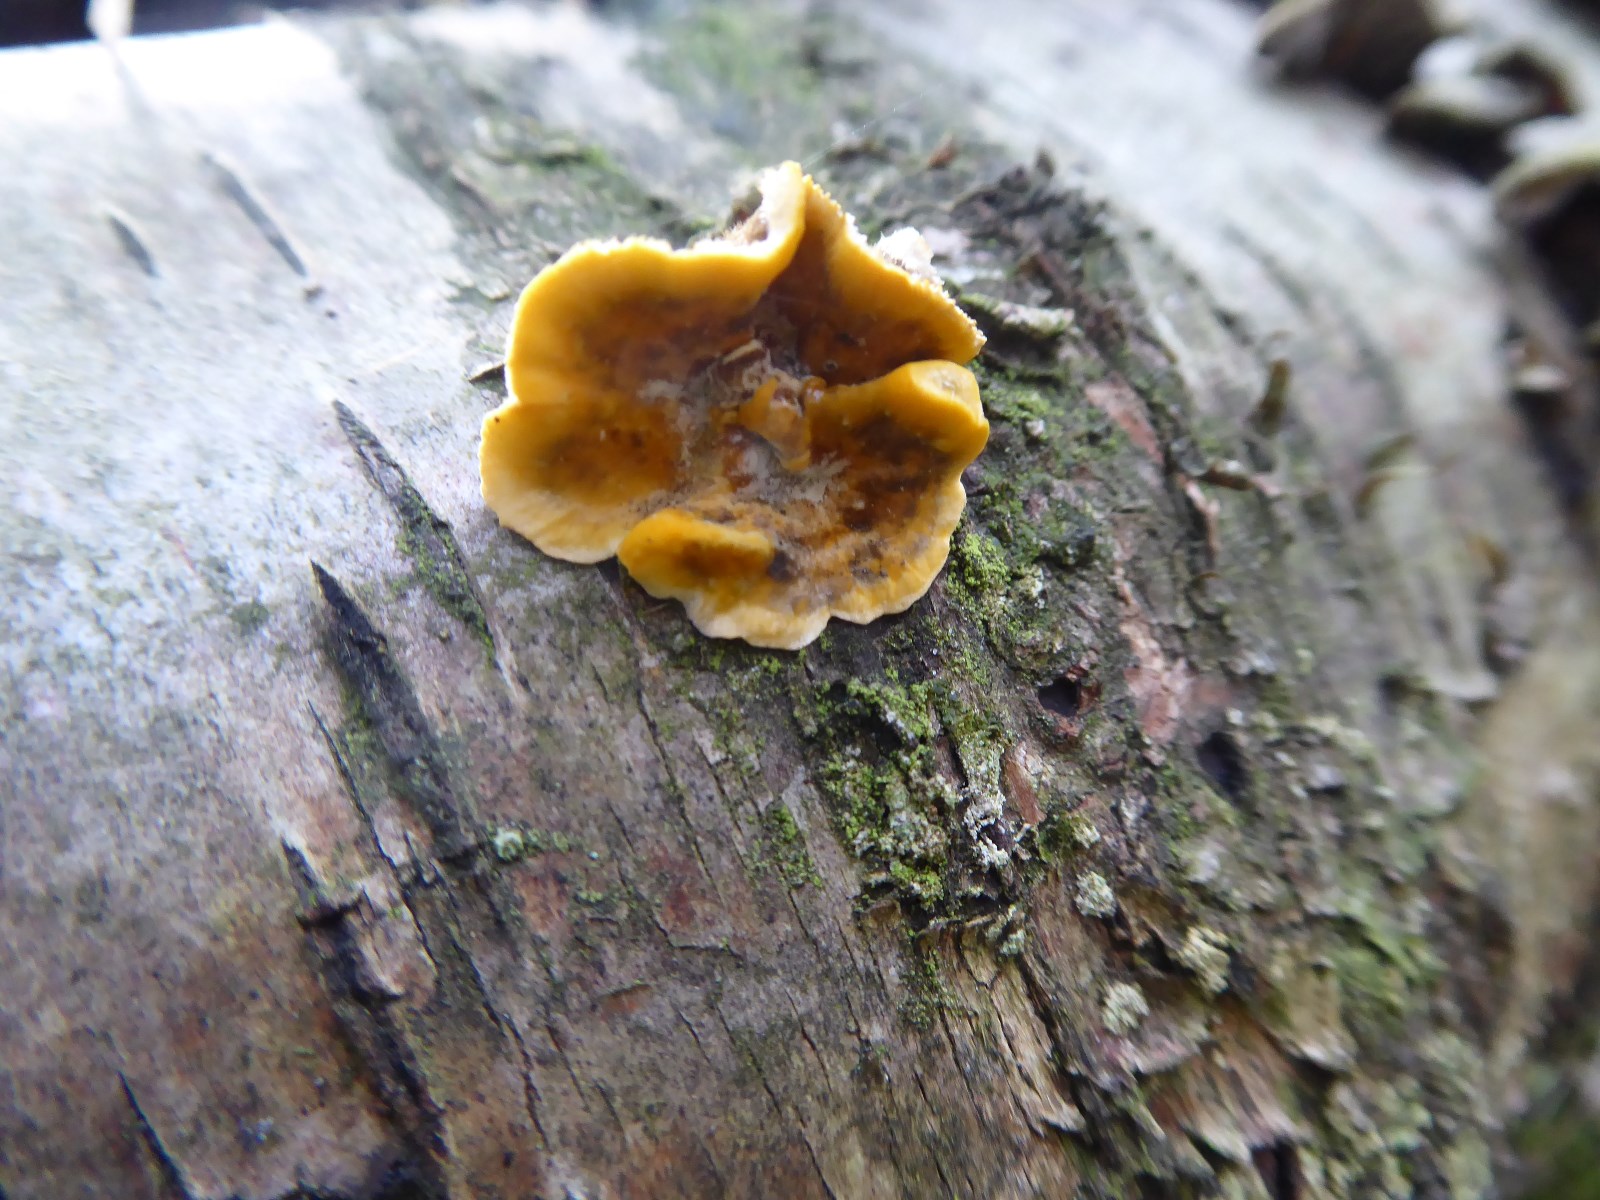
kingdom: Fungi
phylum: Basidiomycota
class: Agaricomycetes
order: Russulales
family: Stereaceae
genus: Stereum
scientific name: Stereum hirsutum
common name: håret lædersvamp
